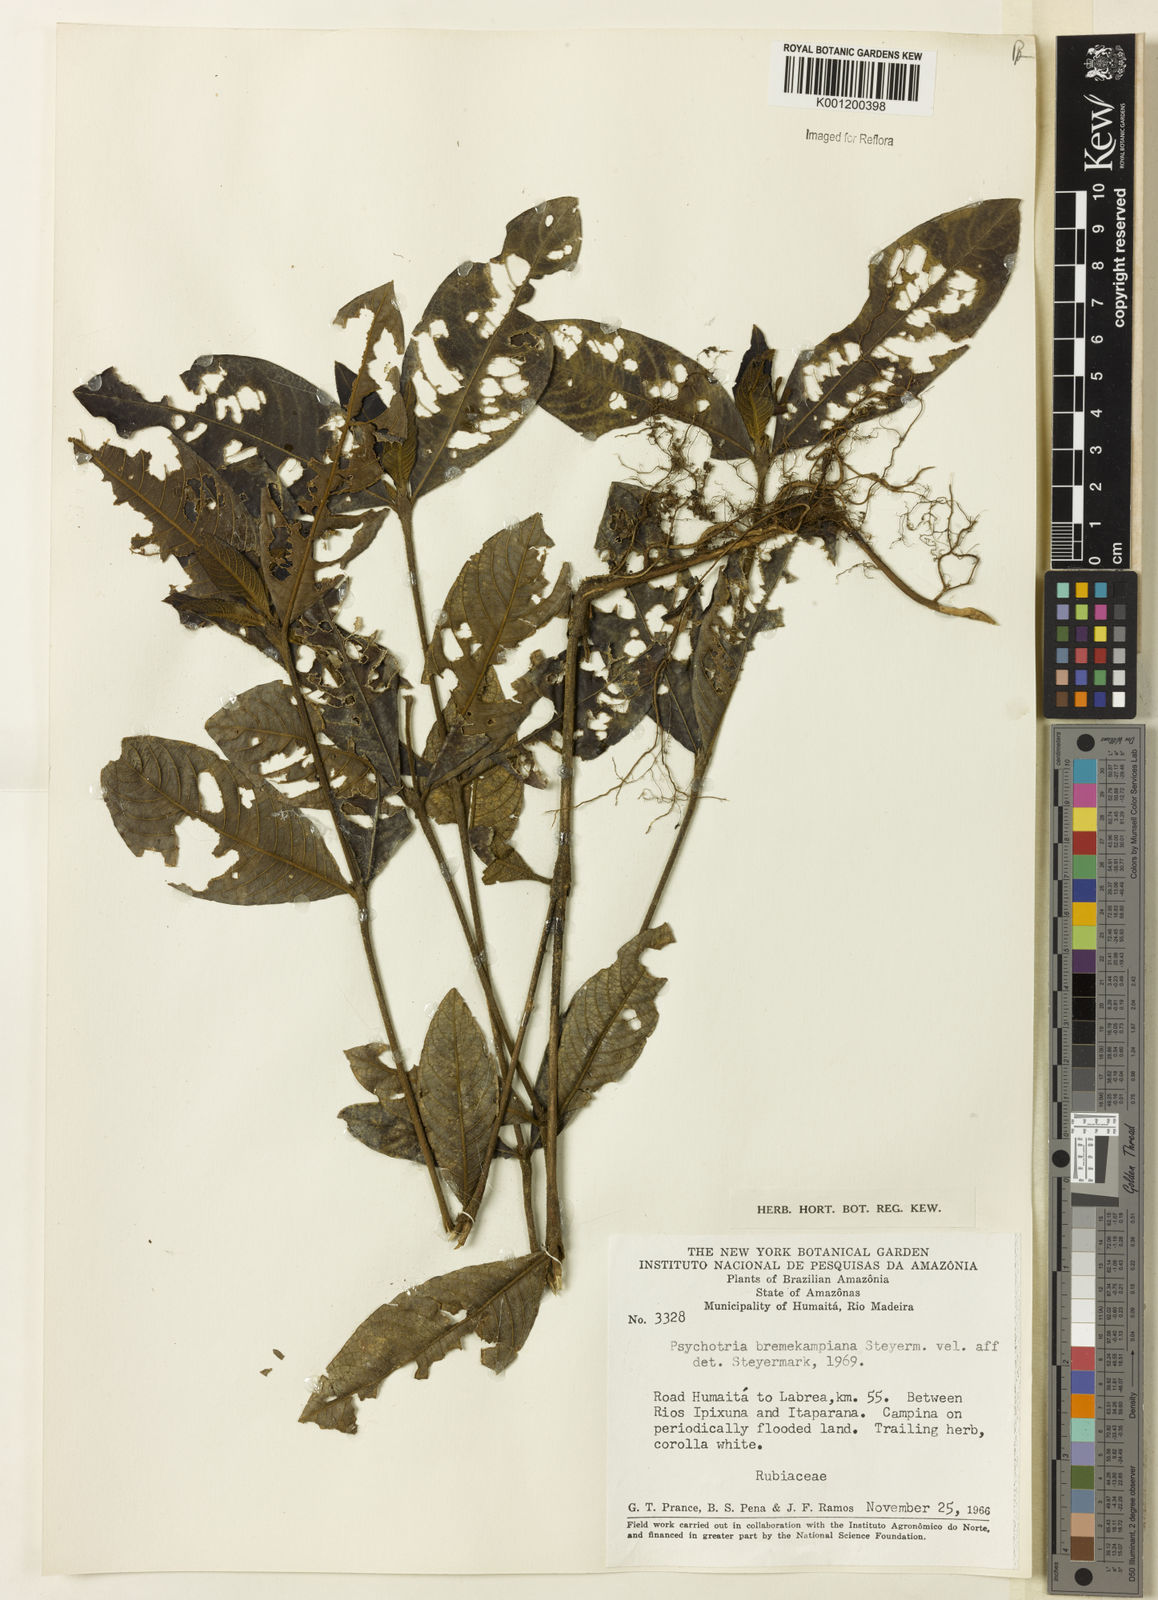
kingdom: Plantae
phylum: Tracheophyta
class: Magnoliopsida
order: Gentianales
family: Rubiaceae
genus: Palicourea
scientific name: Palicourea hirta
